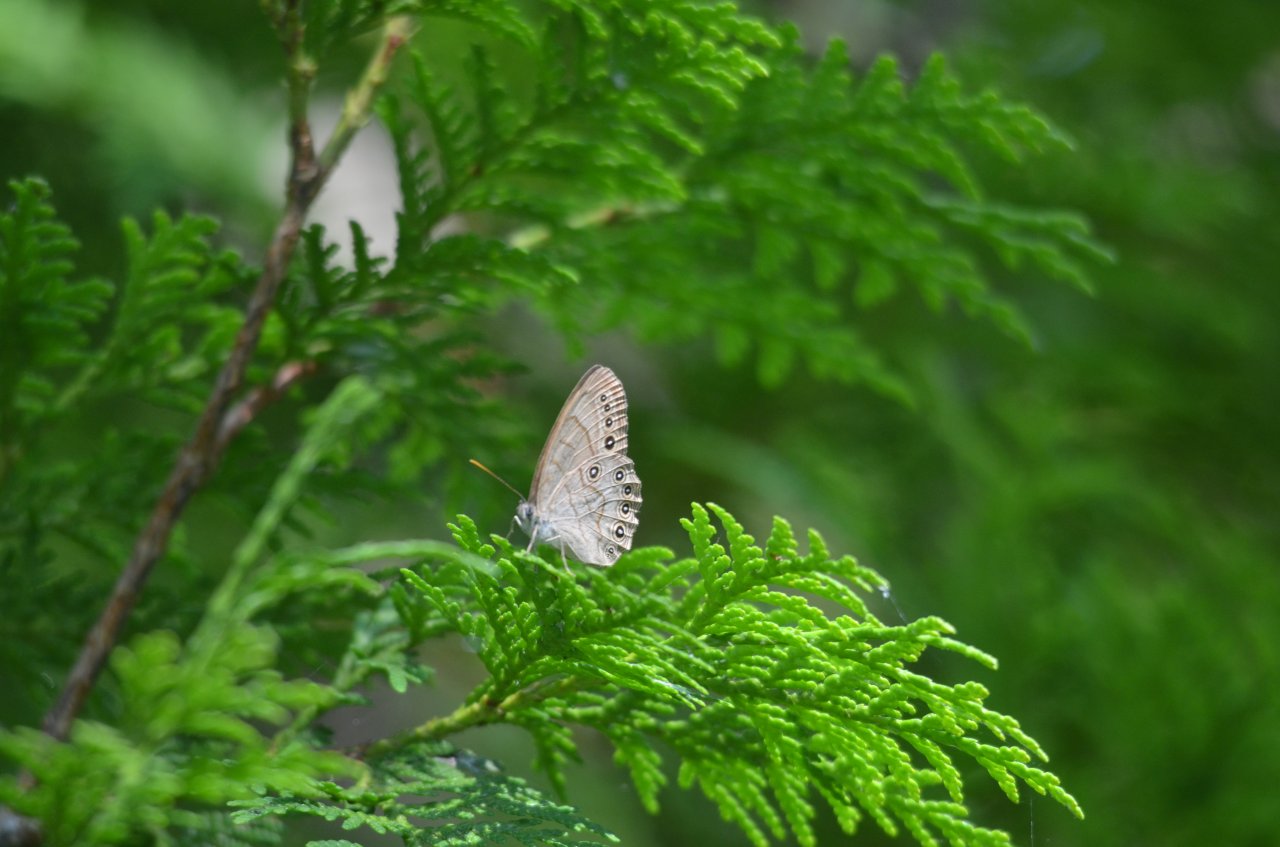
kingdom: Animalia
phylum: Arthropoda
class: Insecta
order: Lepidoptera
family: Nymphalidae
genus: Lethe
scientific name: Lethe eurydice
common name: Appalachian Eyed Brown
